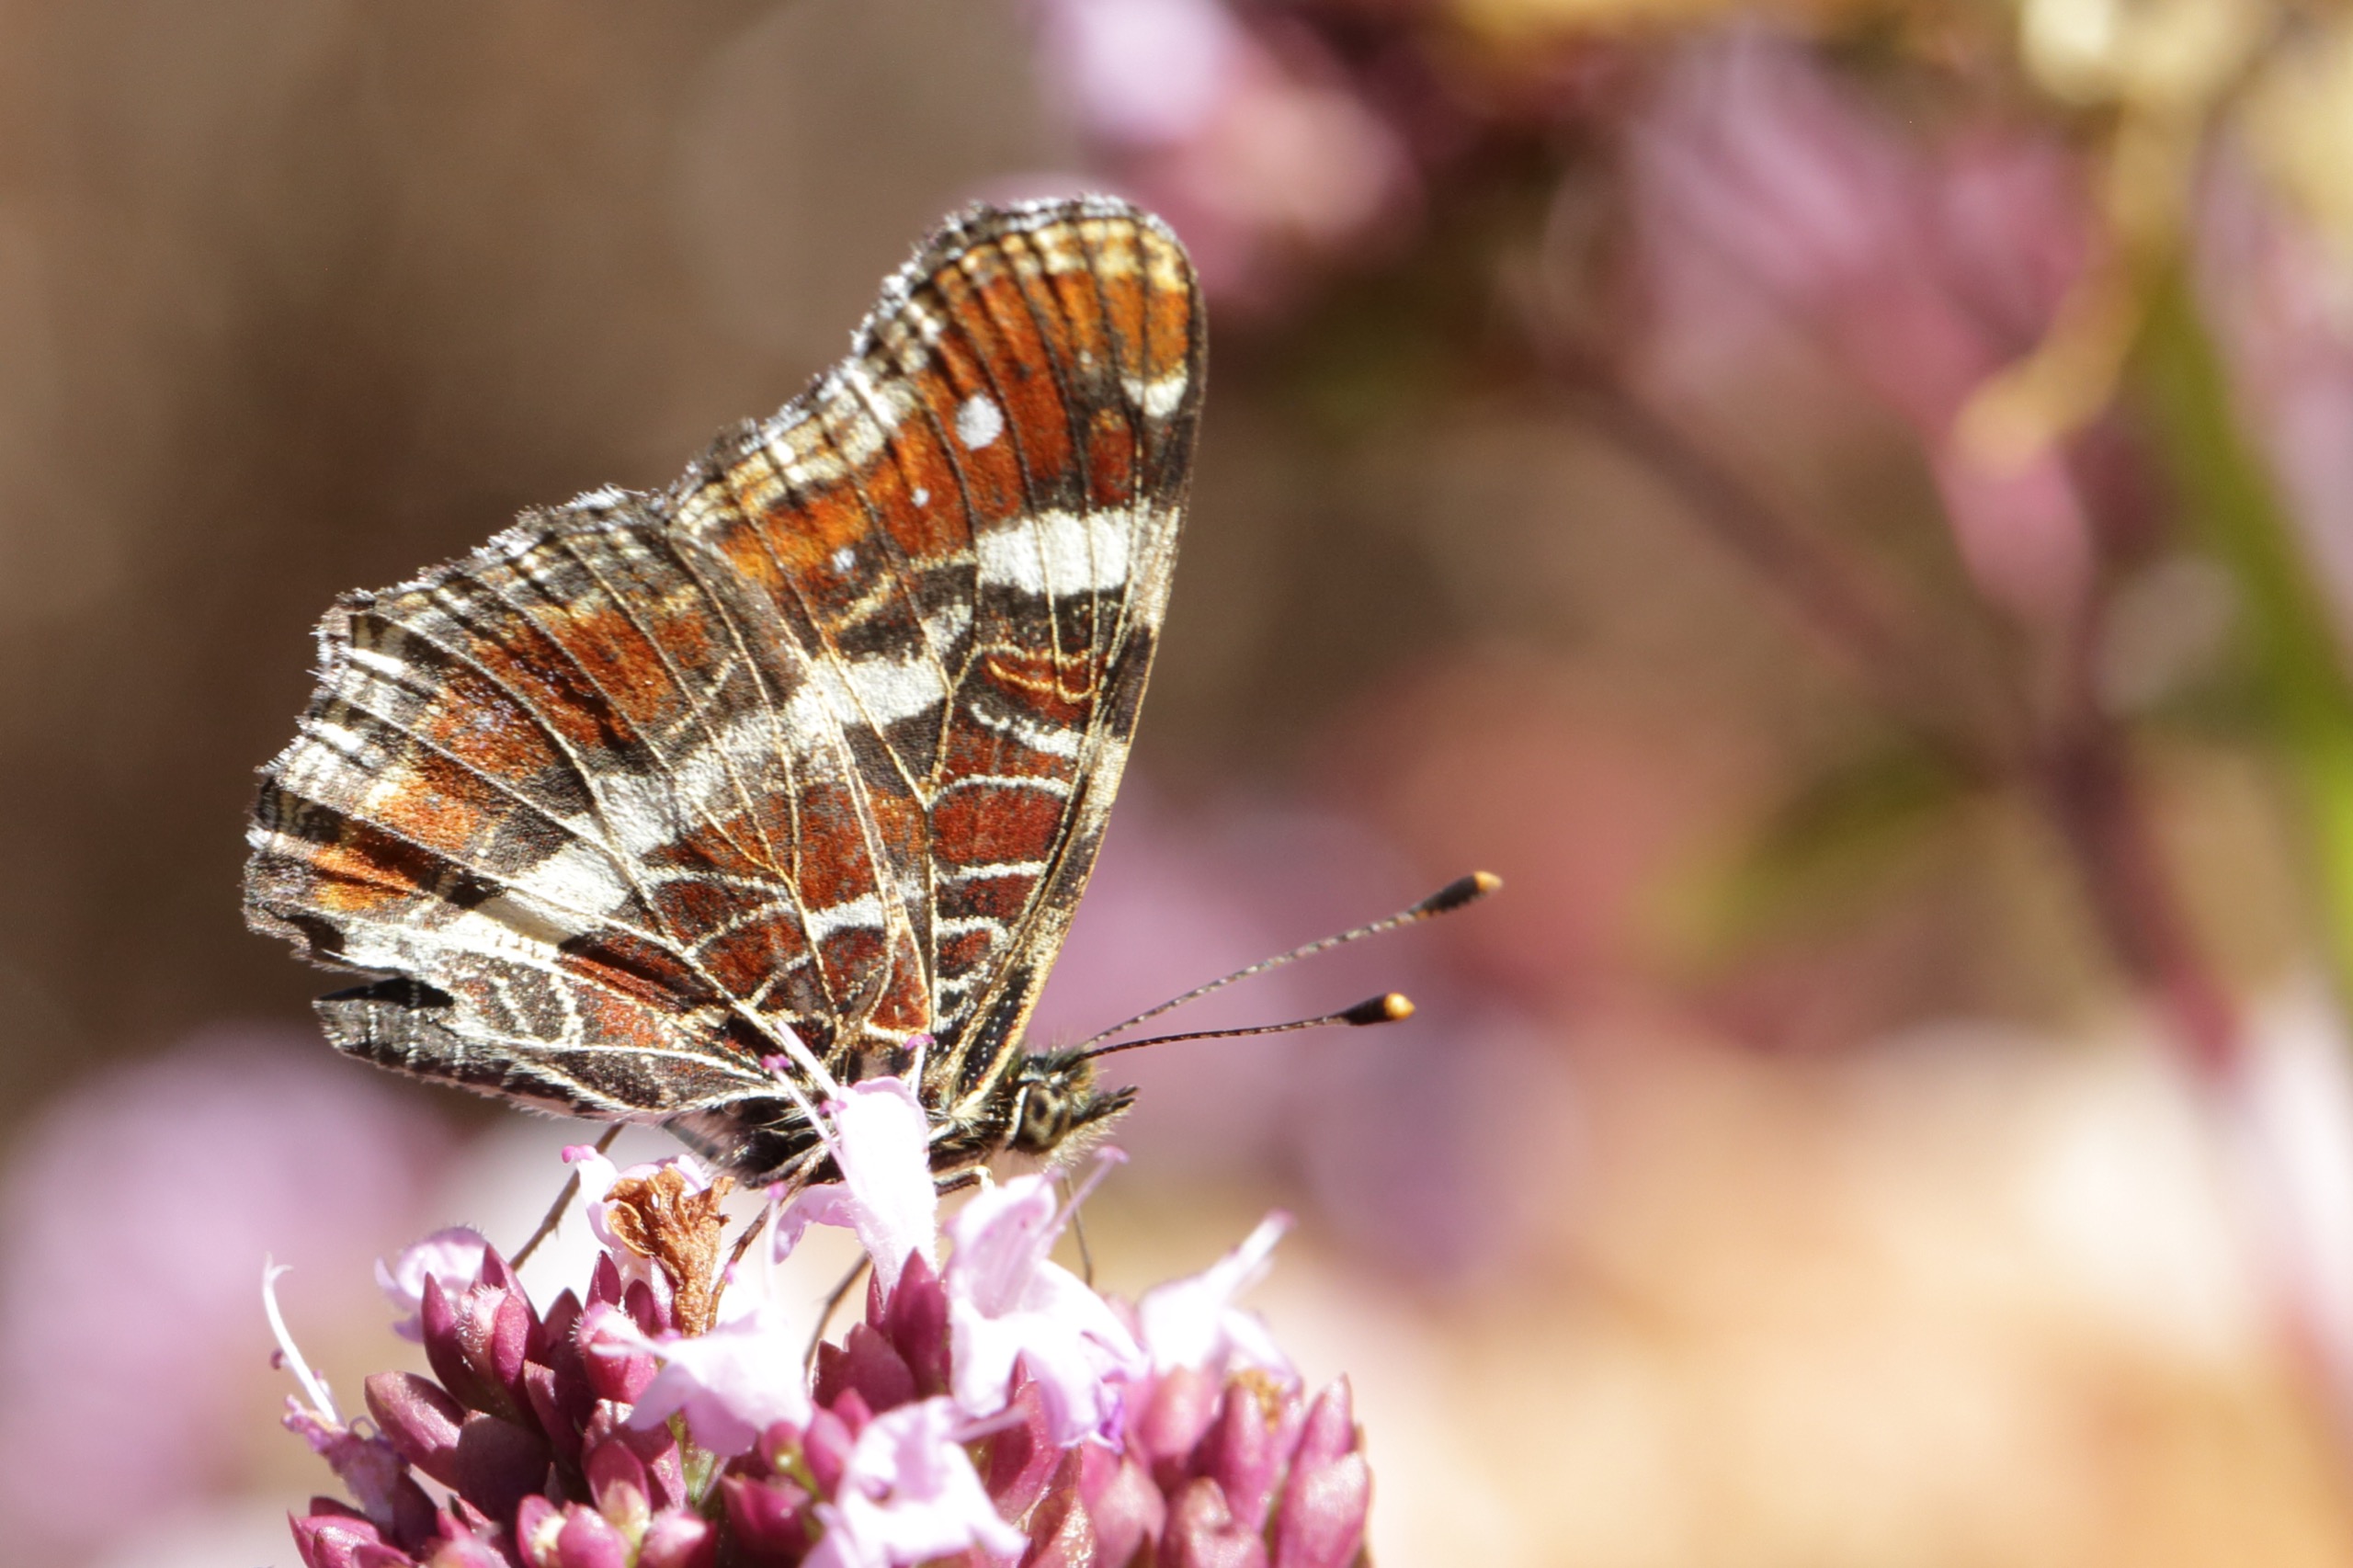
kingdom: Animalia
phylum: Arthropoda
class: Insecta
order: Lepidoptera
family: Nymphalidae
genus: Araschnia
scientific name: Araschnia levana
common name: Nældesommerfugl
